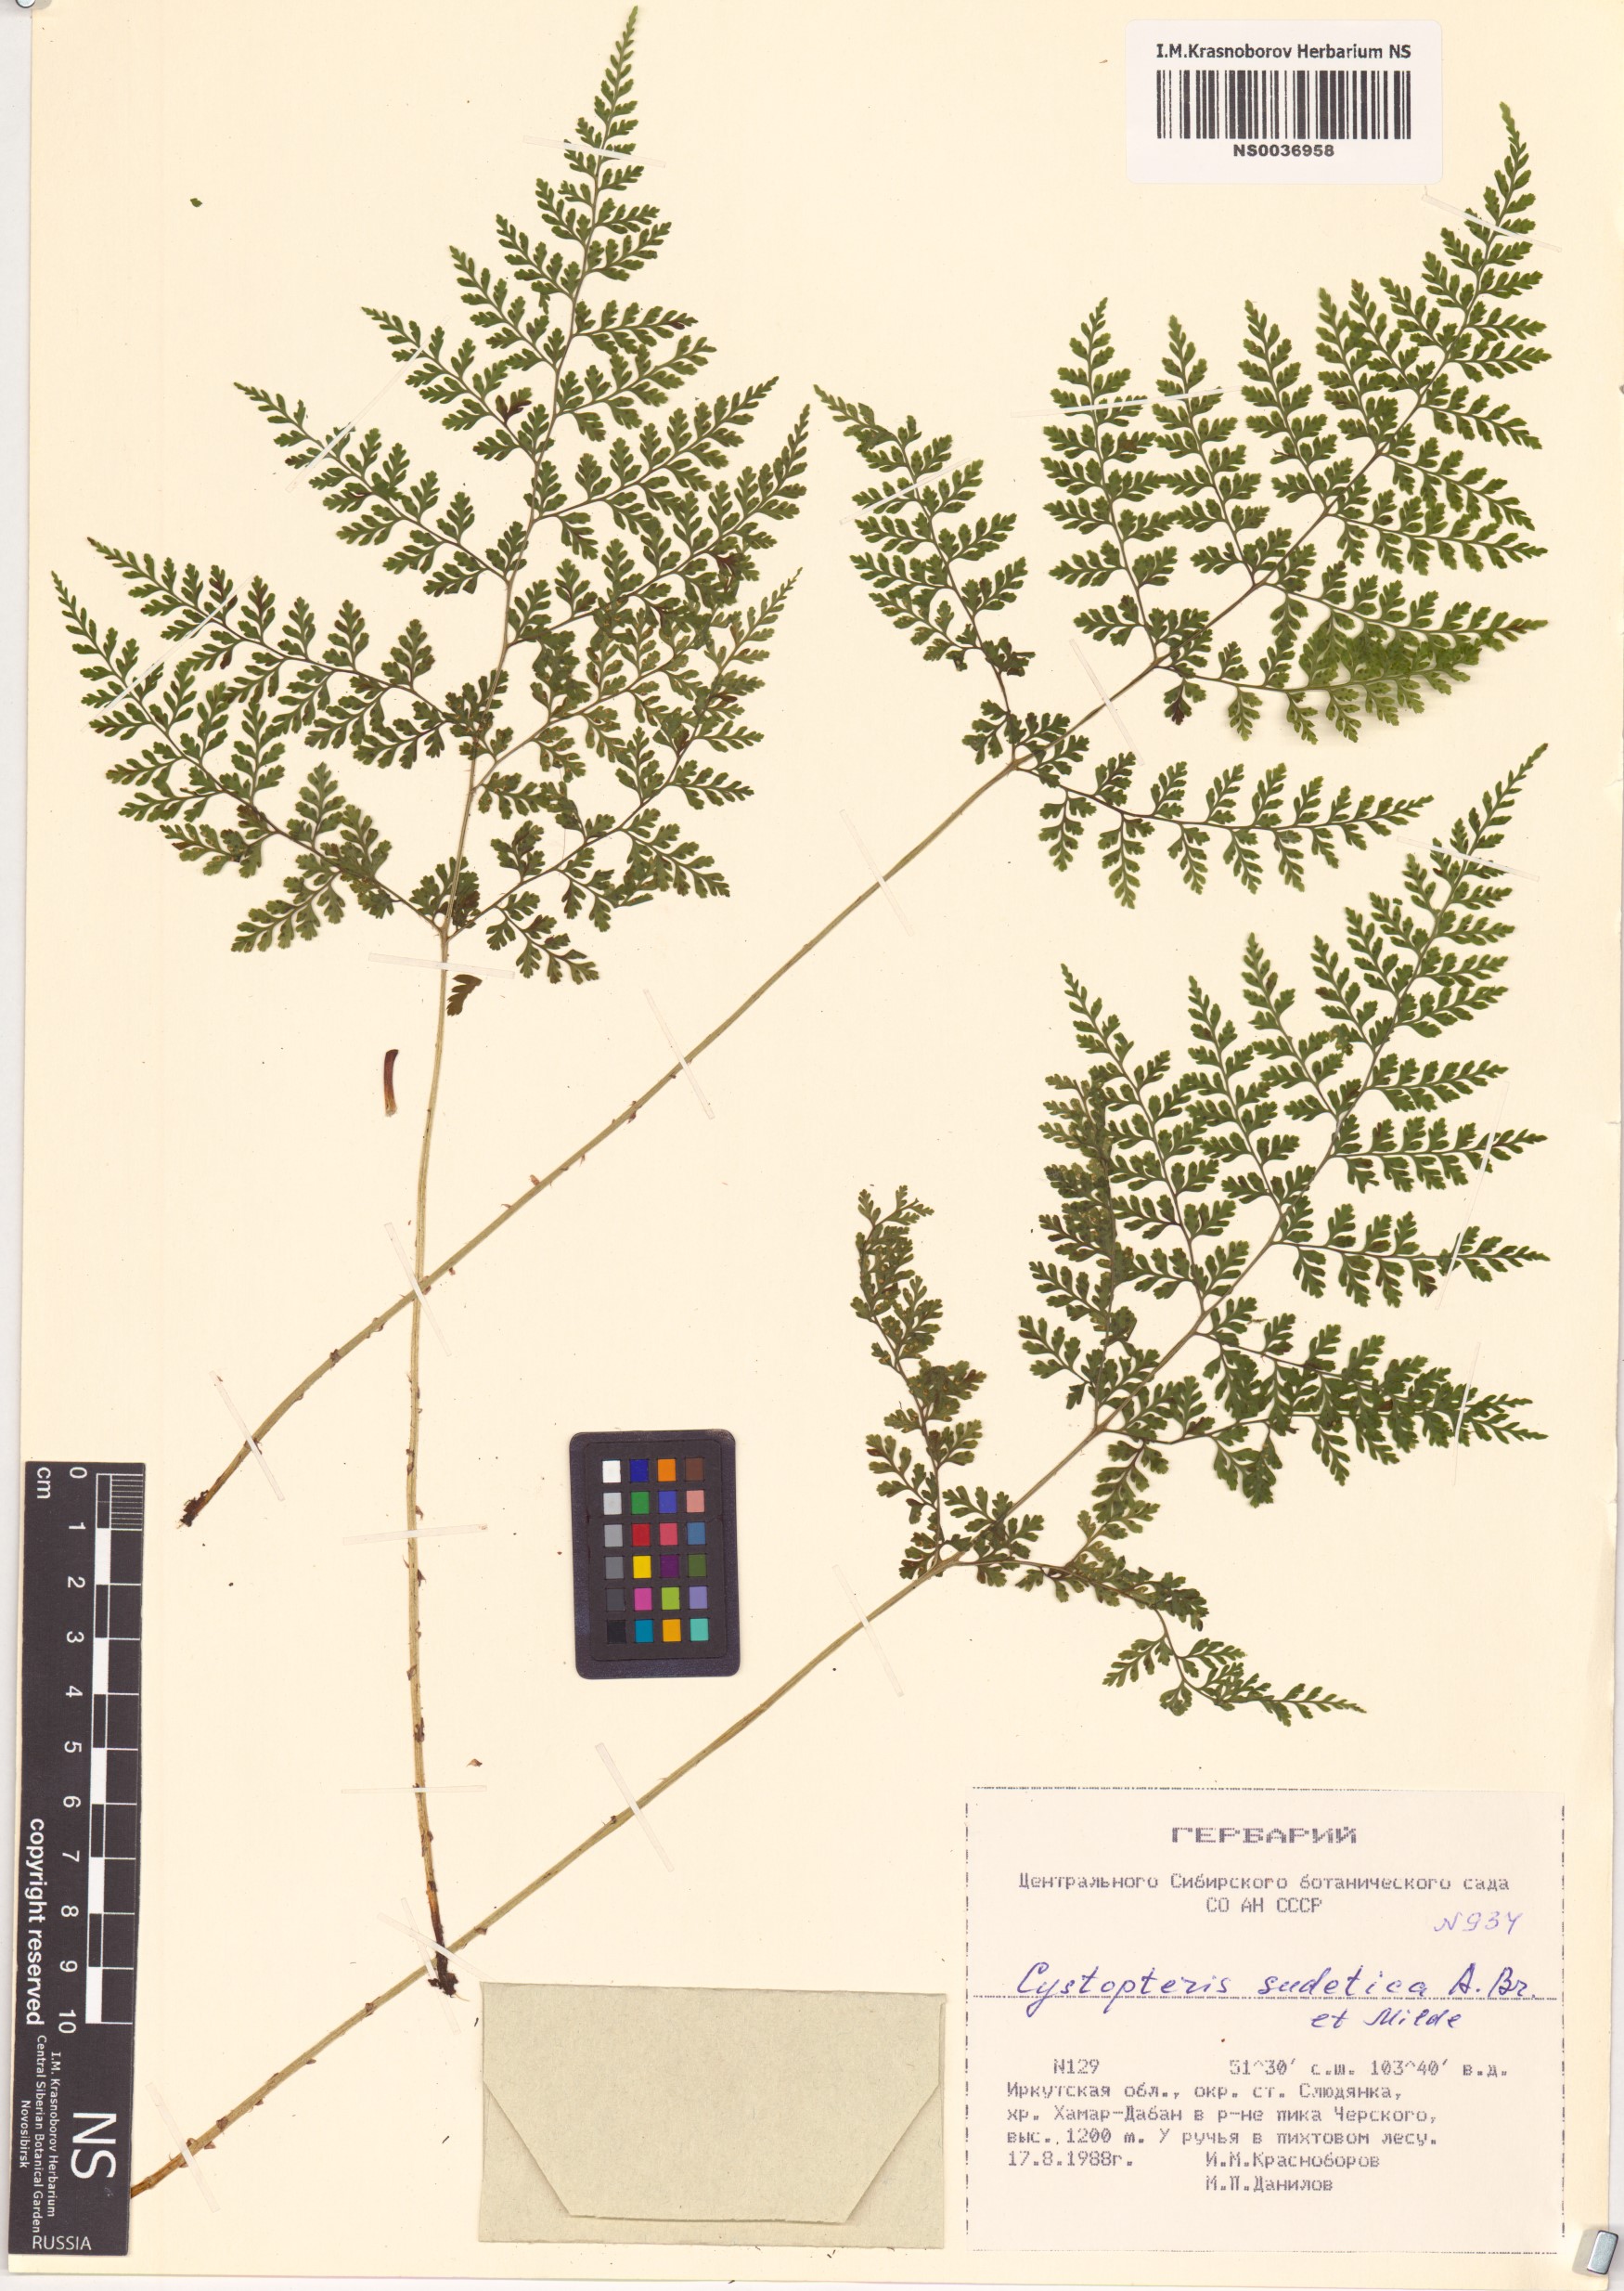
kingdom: Plantae
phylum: Tracheophyta
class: Polypodiopsida
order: Polypodiales
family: Cystopteridaceae
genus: Cystopteris
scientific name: Cystopteris sudetica
